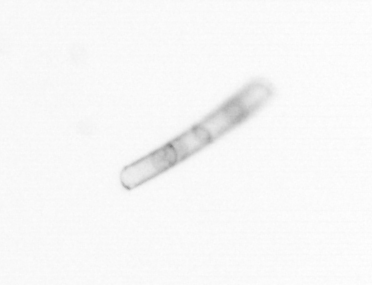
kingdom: Chromista
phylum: Ochrophyta
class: Bacillariophyceae
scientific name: Bacillariophyceae
